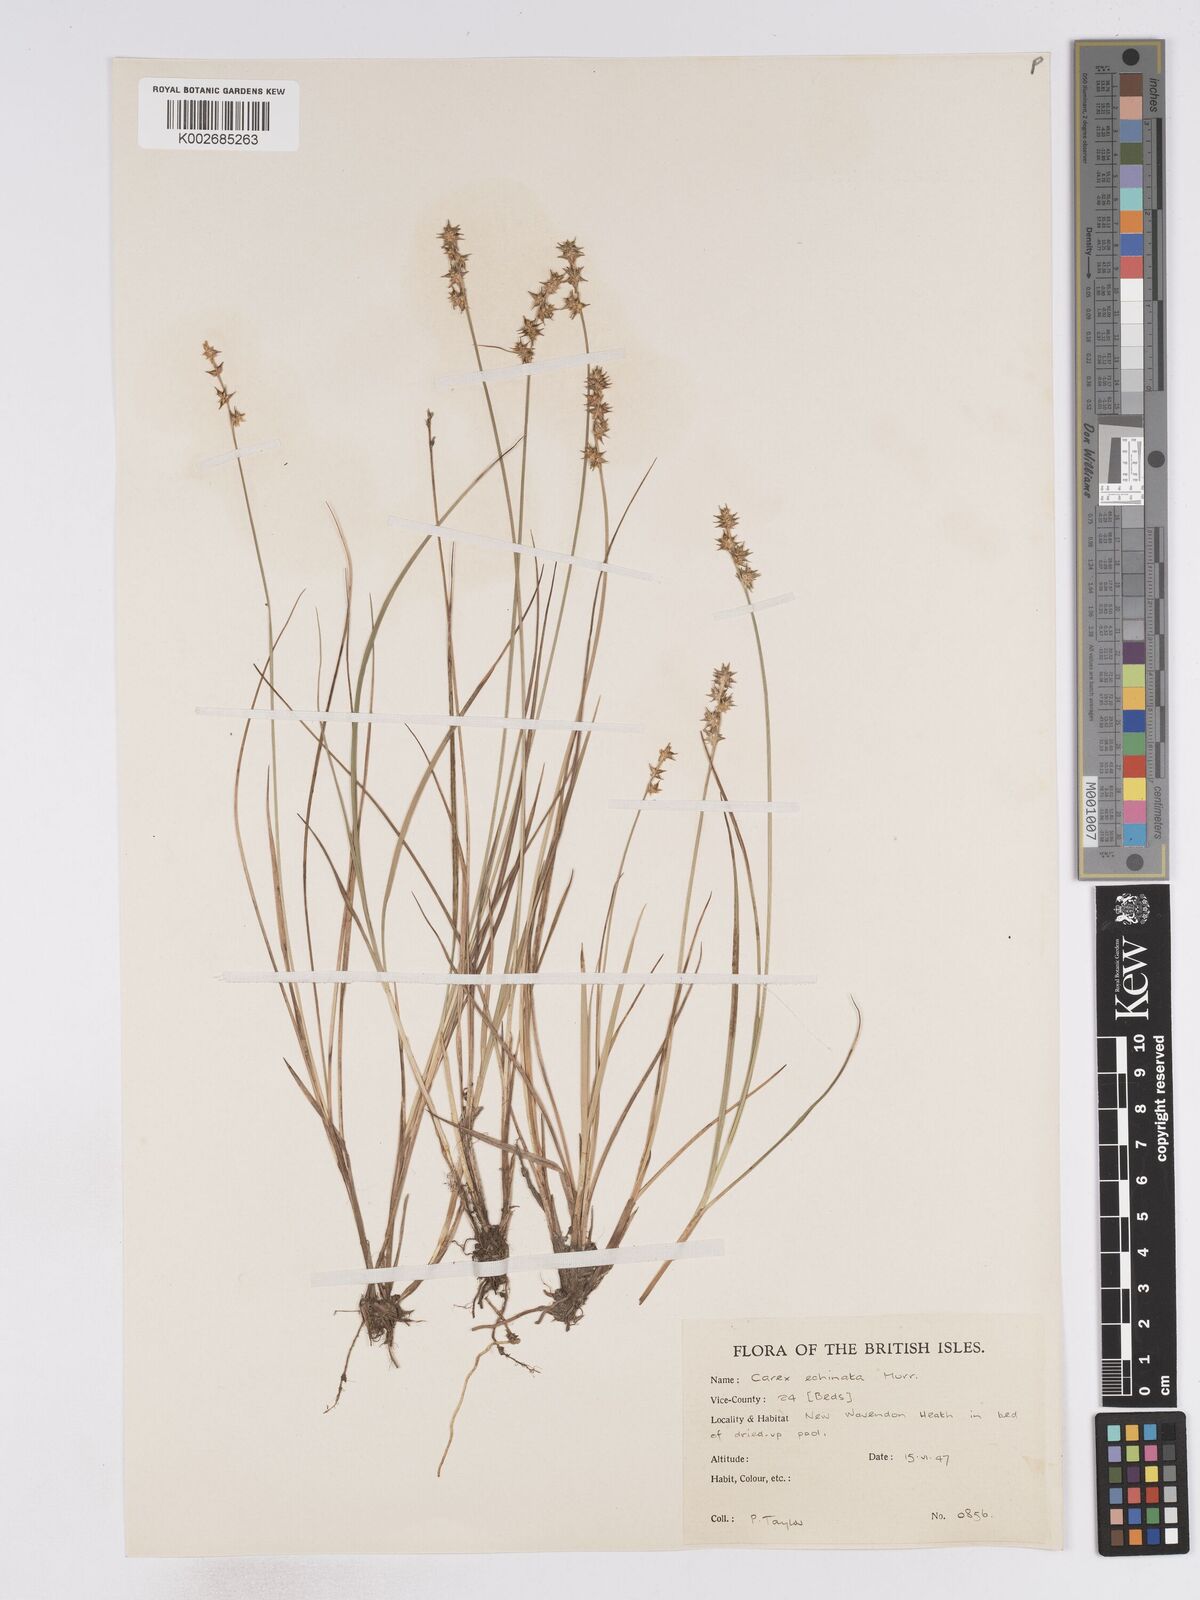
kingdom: Plantae
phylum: Tracheophyta
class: Liliopsida
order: Poales
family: Cyperaceae
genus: Carex
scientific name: Carex echinata
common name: Star sedge
